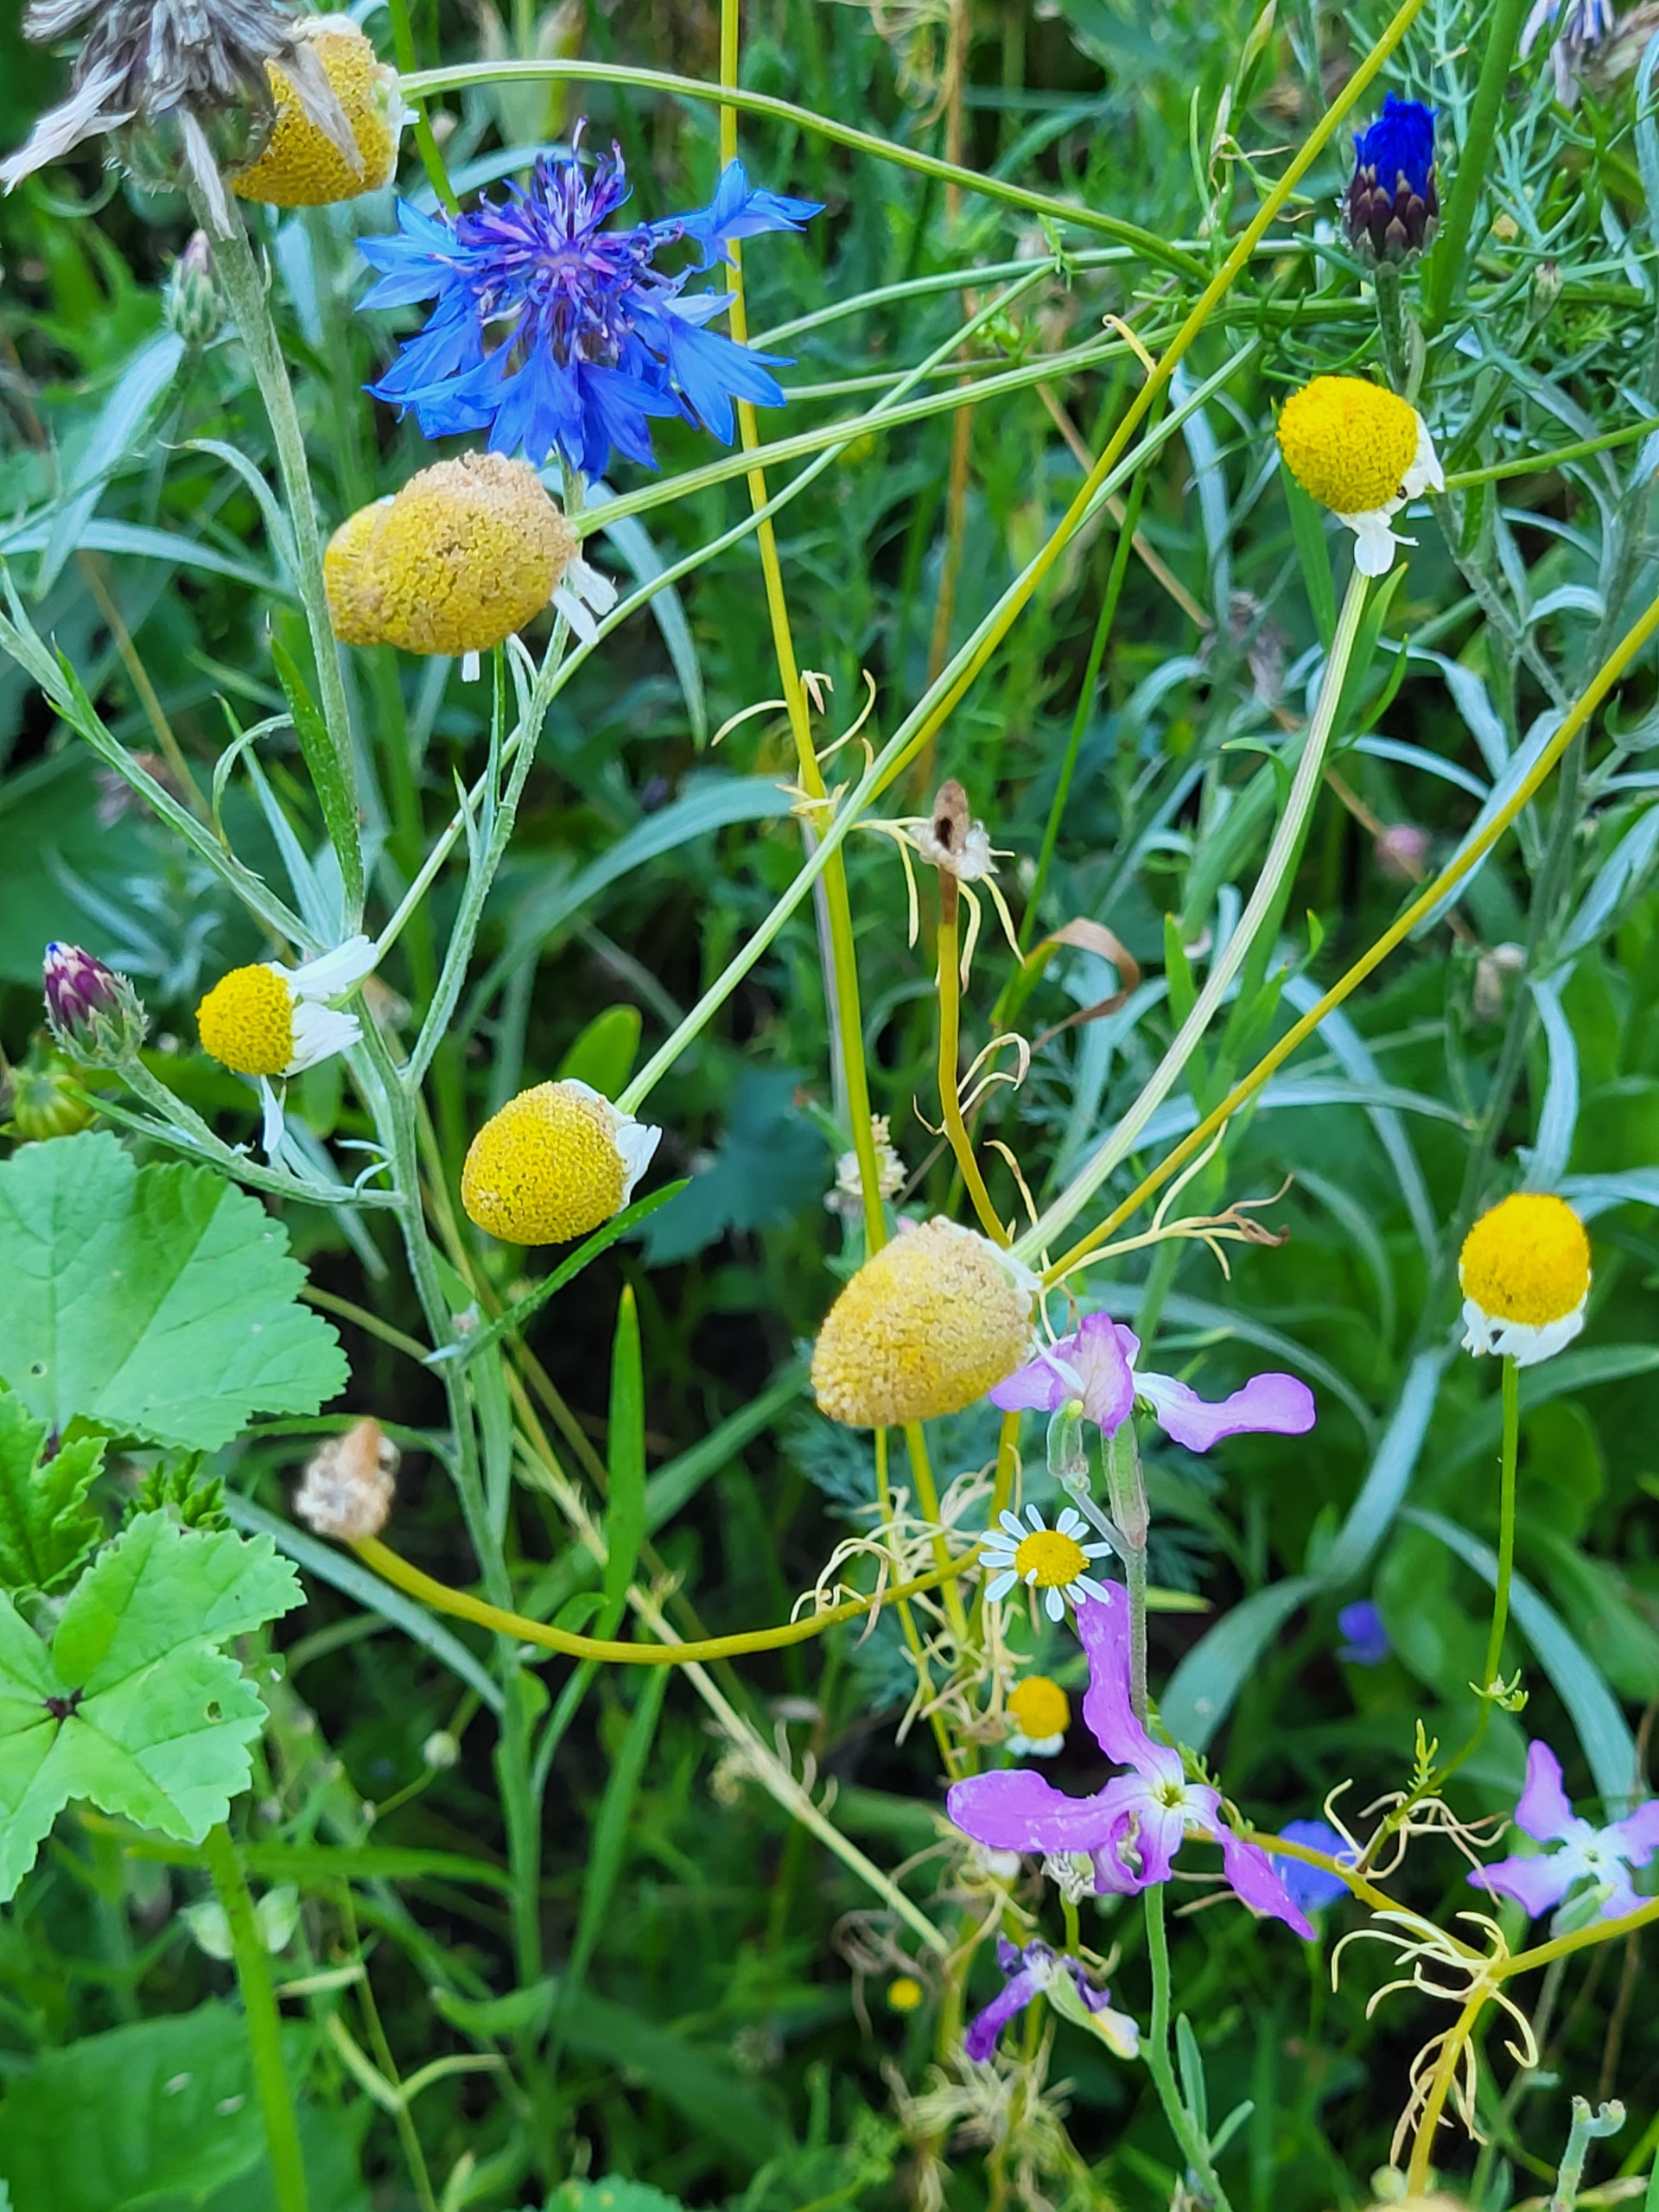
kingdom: Plantae
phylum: Tracheophyta
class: Magnoliopsida
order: Asterales
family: Asteraceae
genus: Matricaria
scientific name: Matricaria chamomilla
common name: Vellugtende kamille
